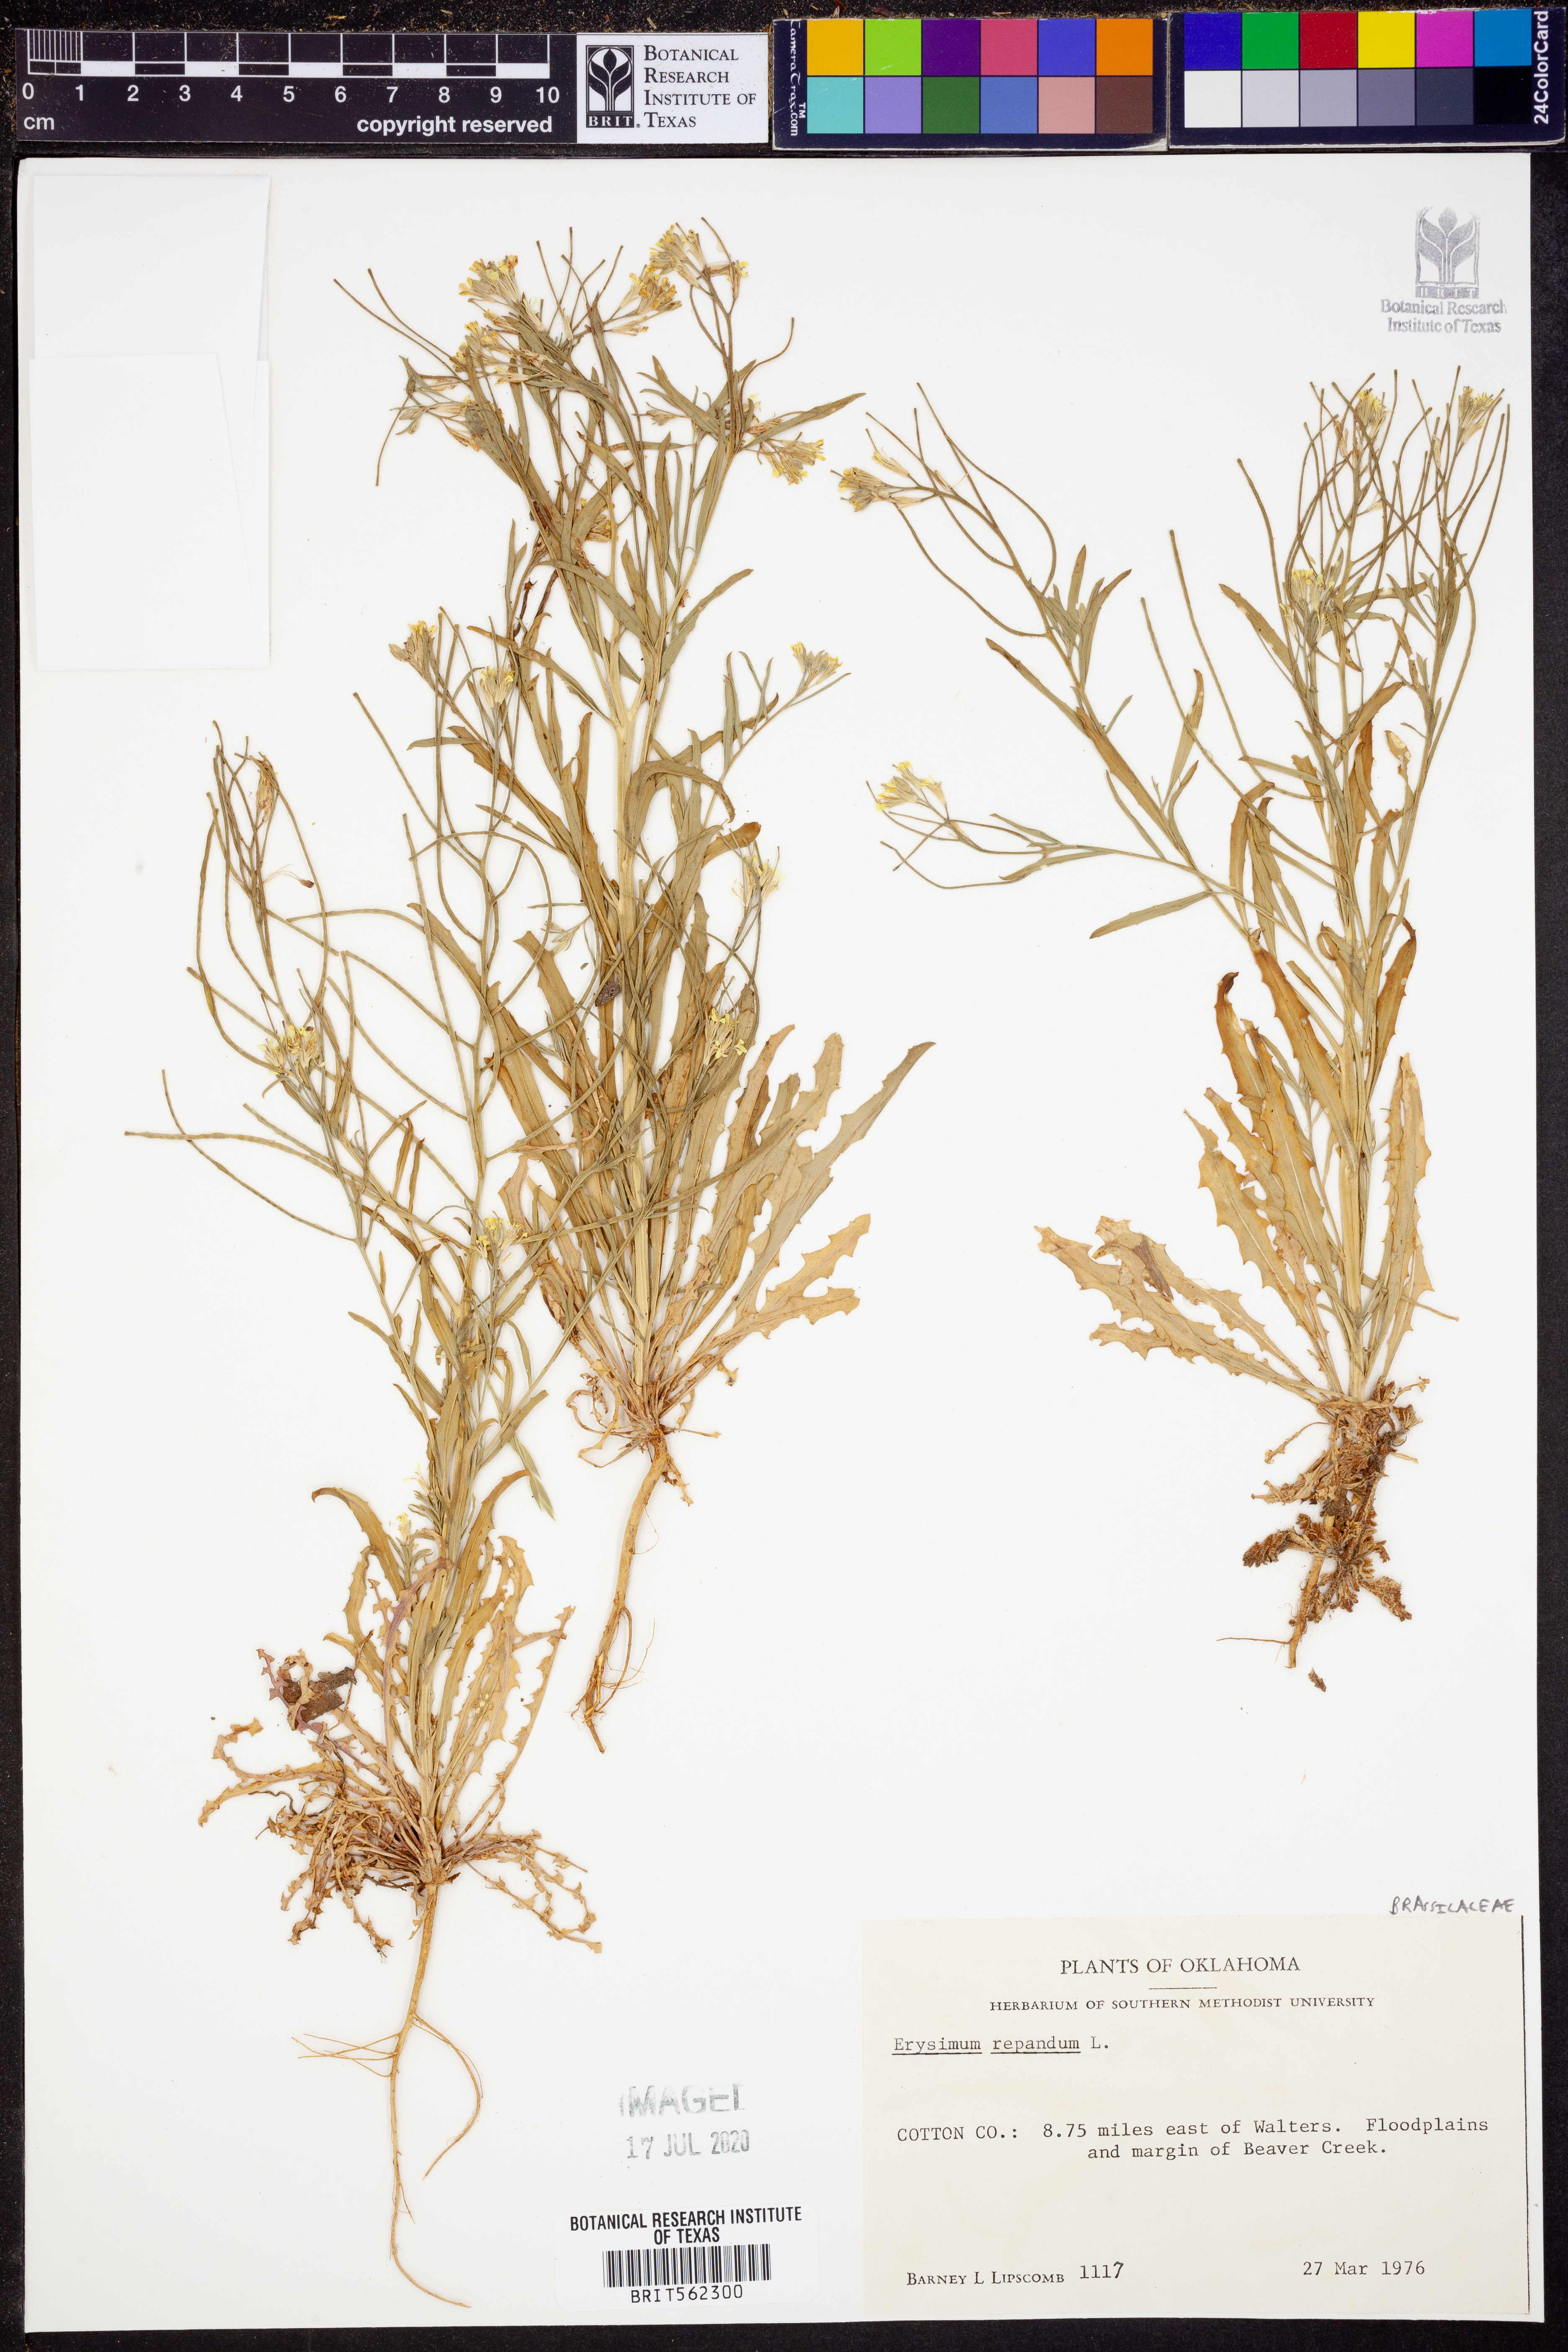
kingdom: Plantae
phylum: Tracheophyta
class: Magnoliopsida
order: Brassicales
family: Brassicaceae
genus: Erysimum
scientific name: Erysimum repandum
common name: Spreading wallflower
